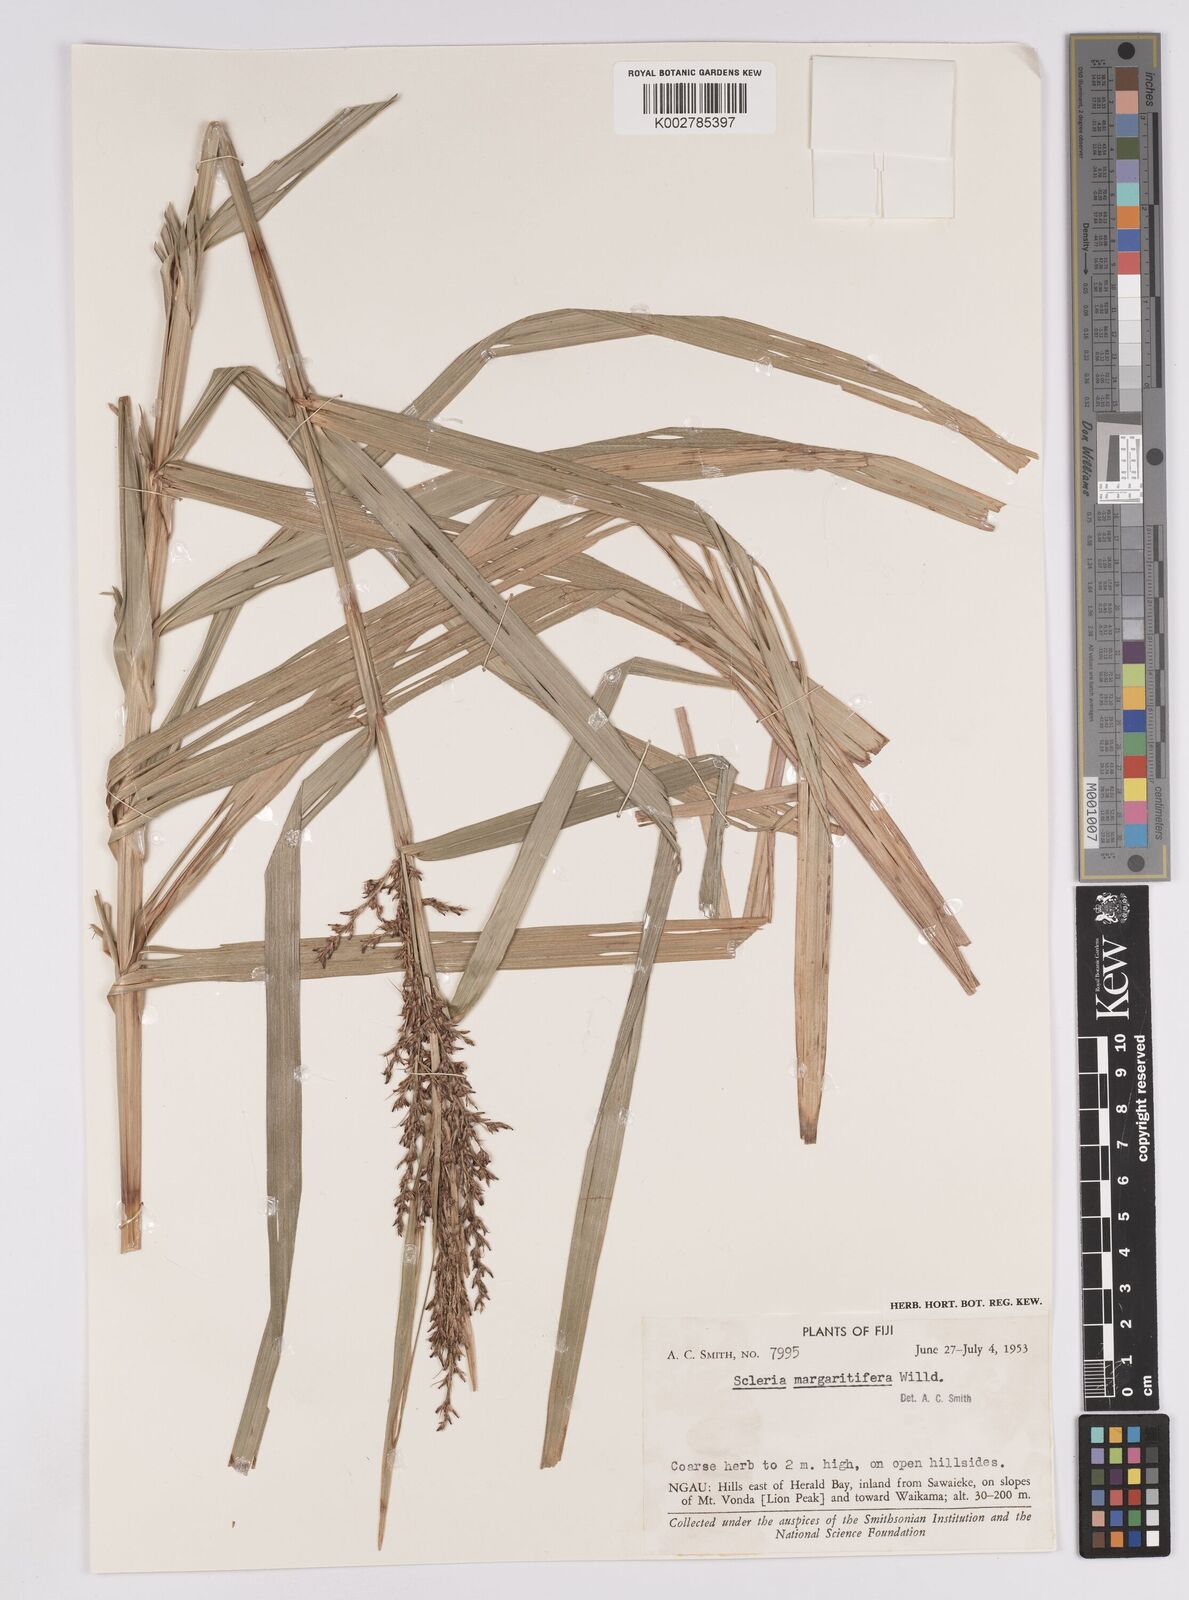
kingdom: Plantae
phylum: Tracheophyta
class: Liliopsida
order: Poales
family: Cyperaceae
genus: Scleria
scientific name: Scleria polycarpa
